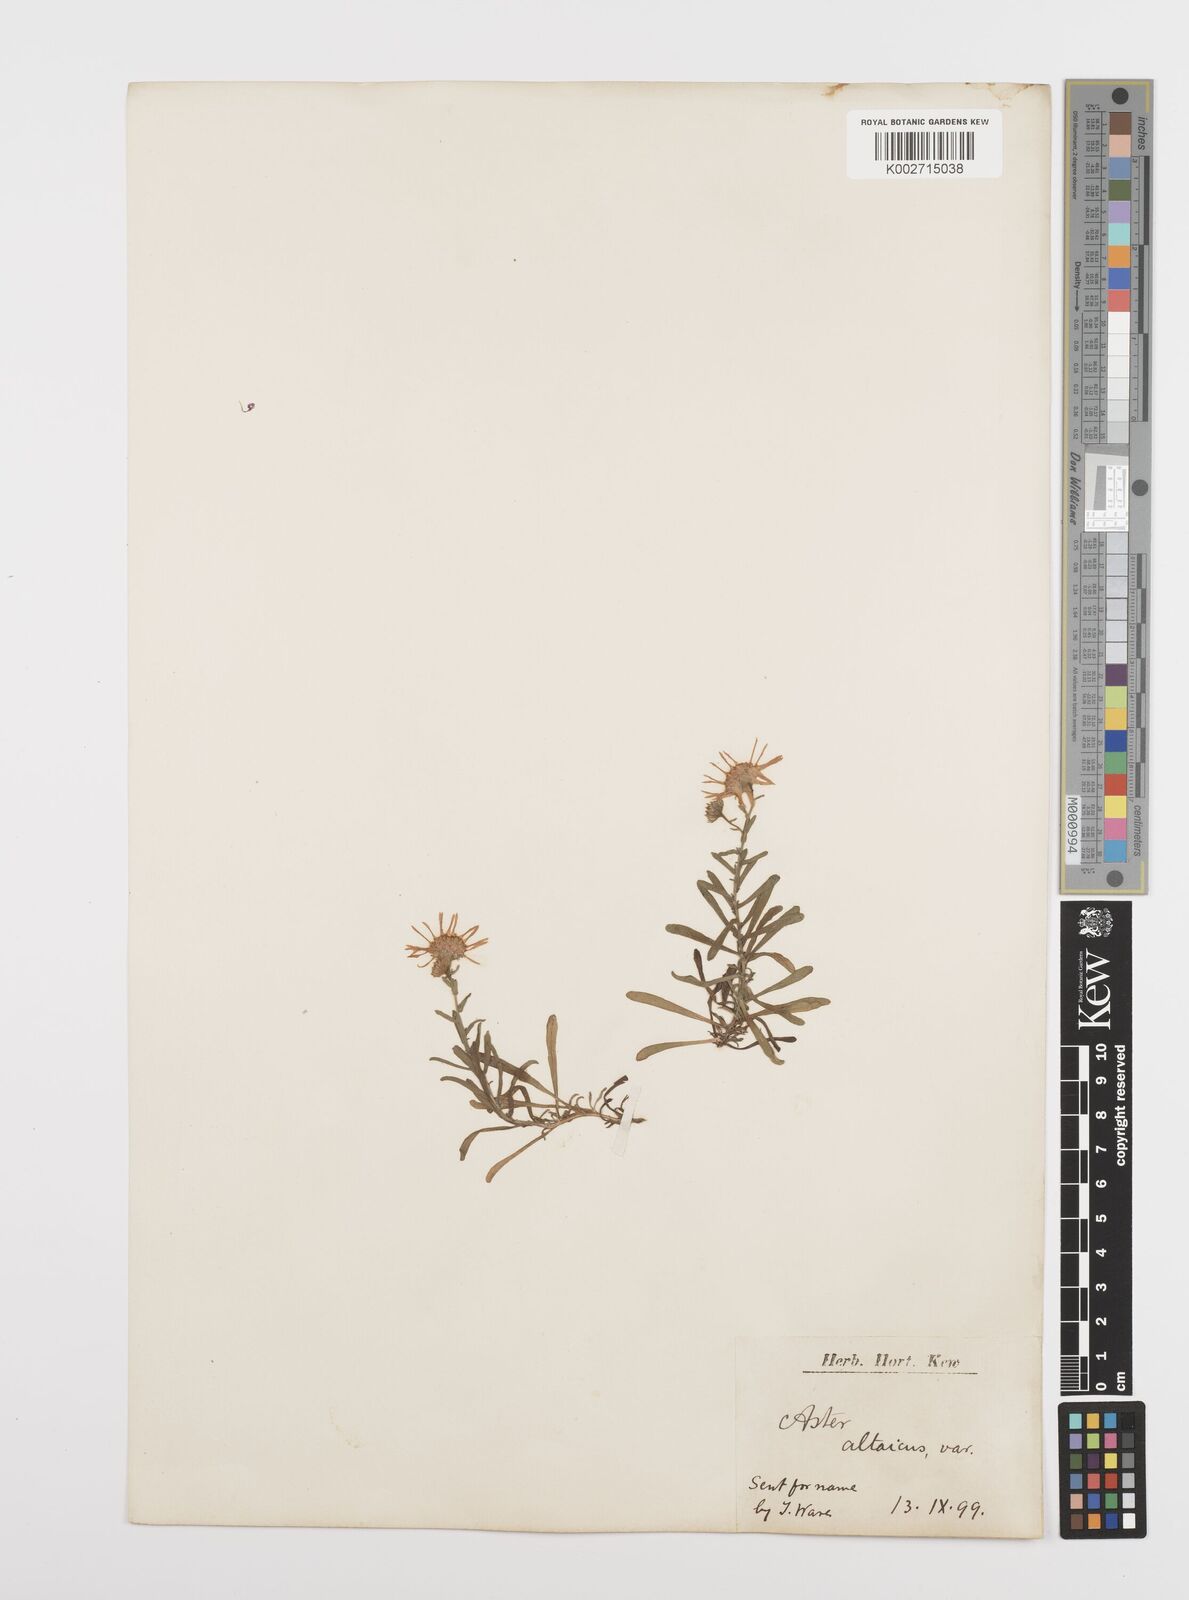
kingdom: Plantae
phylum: Tracheophyta
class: Magnoliopsida
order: Asterales
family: Asteraceae
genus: Heteropappus
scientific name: Heteropappus altaicus
